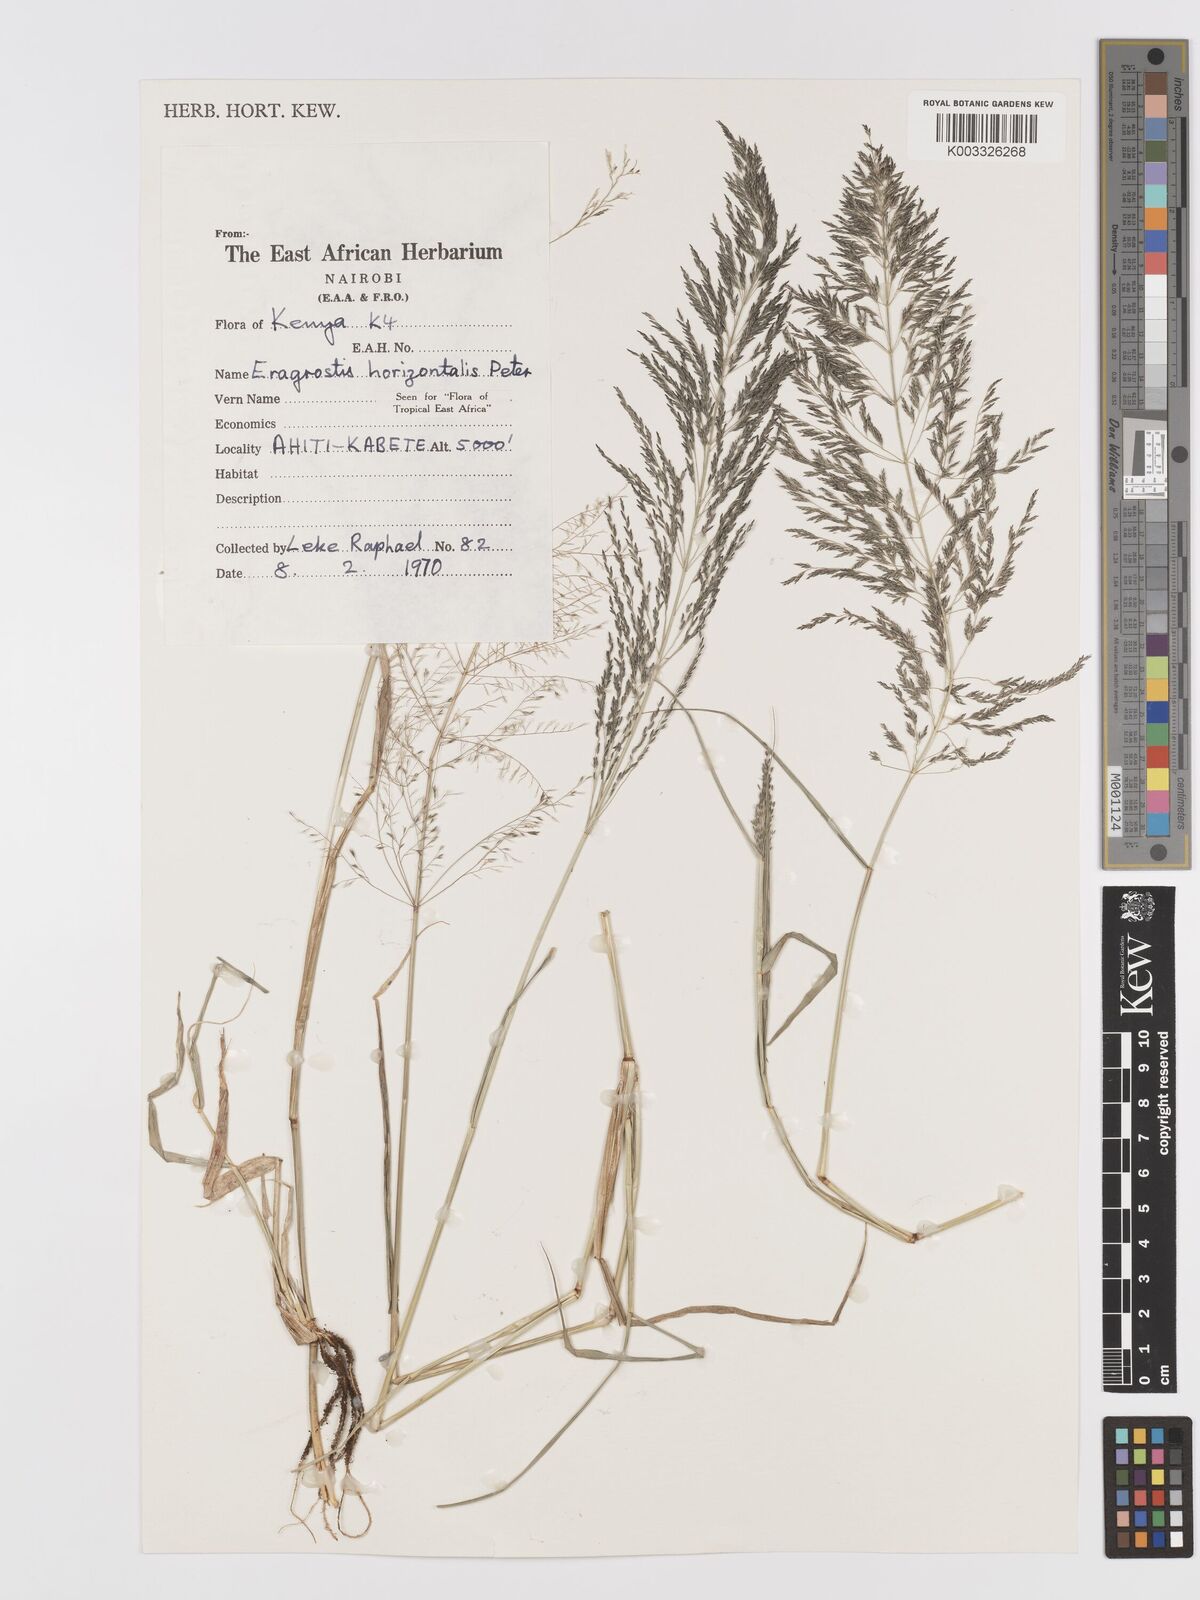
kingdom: Plantae
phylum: Tracheophyta
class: Liliopsida
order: Poales
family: Poaceae
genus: Eragrostis
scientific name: Eragrostis cylindriflora
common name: Cylinderflower lovegrass
